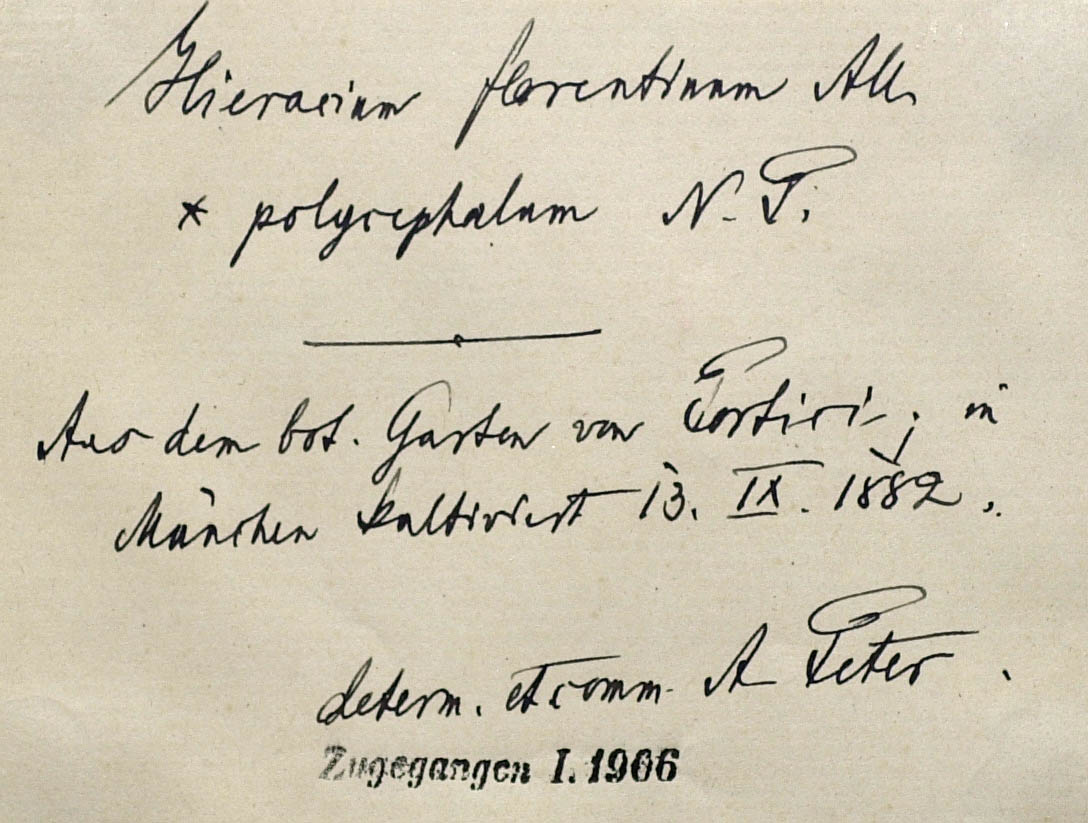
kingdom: Plantae
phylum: Tracheophyta
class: Magnoliopsida
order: Asterales
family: Asteraceae
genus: Pilosella
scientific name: Pilosella piloselloides
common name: Glaucous king-devil
